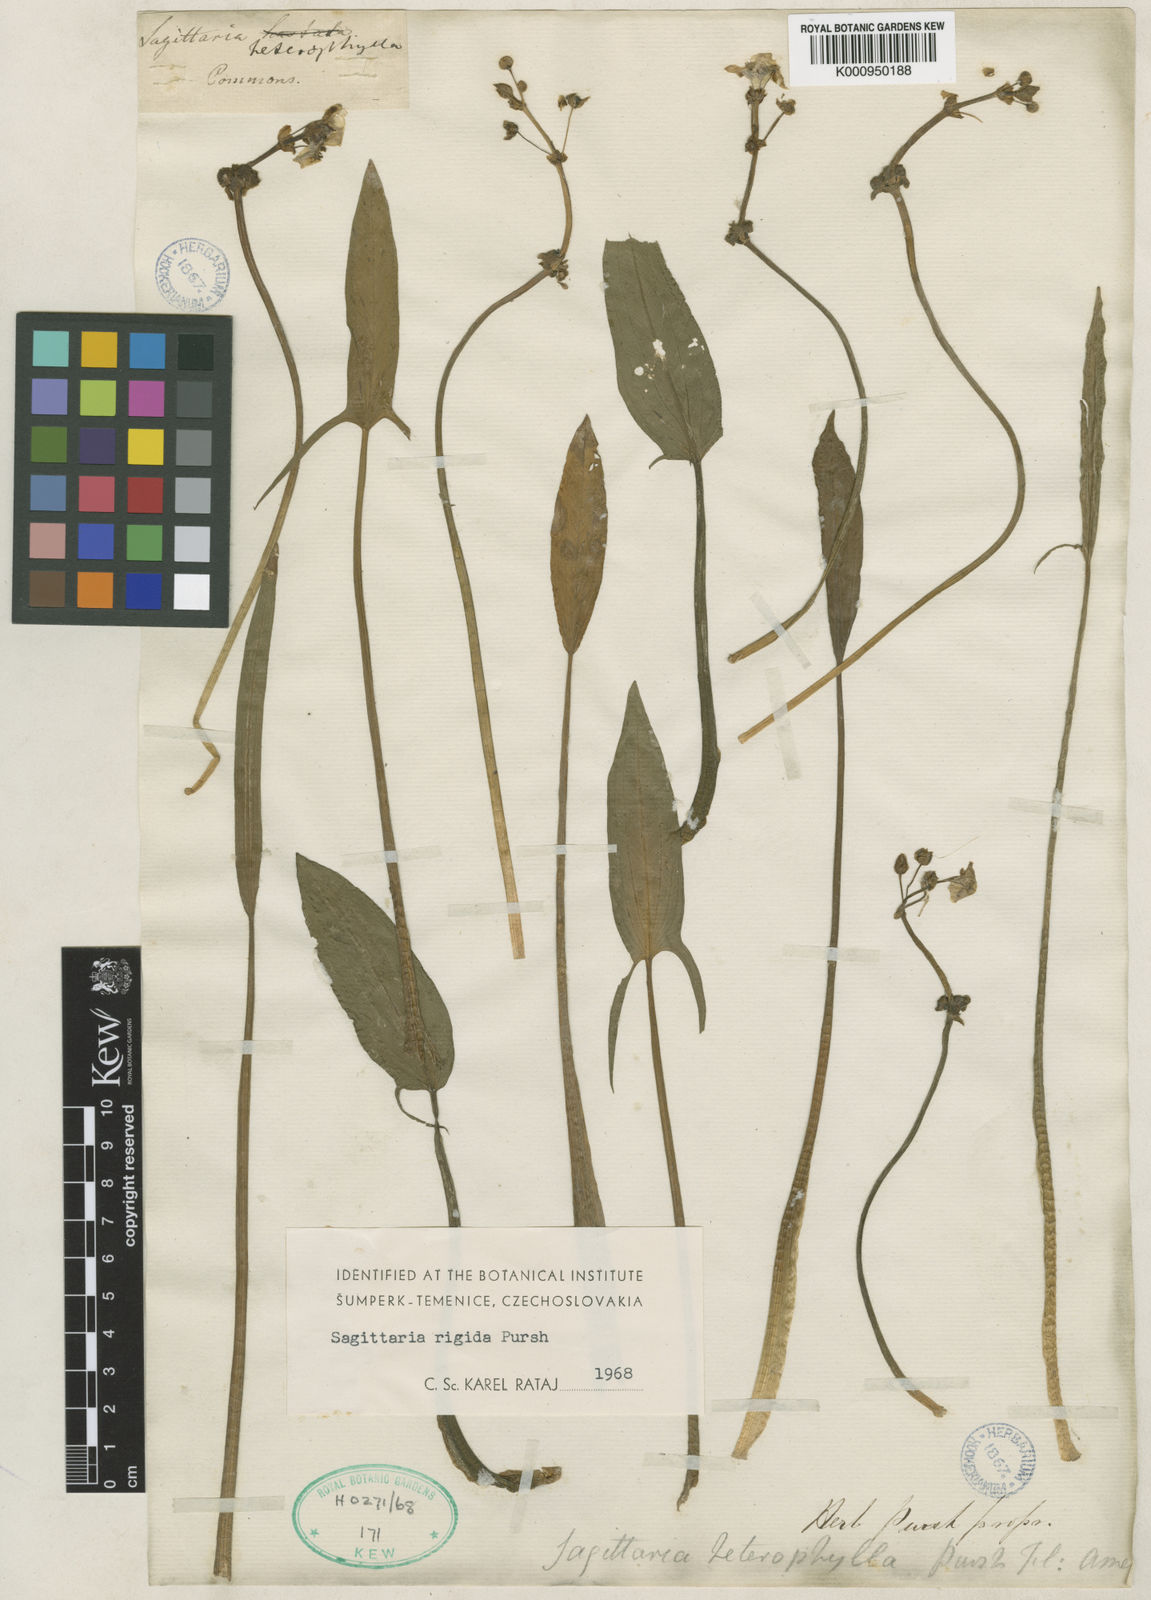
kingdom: Plantae
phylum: Tracheophyta
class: Liliopsida
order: Alismatales
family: Alismataceae
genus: Sagittaria
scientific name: Sagittaria rigida
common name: Canadian arrowhead
